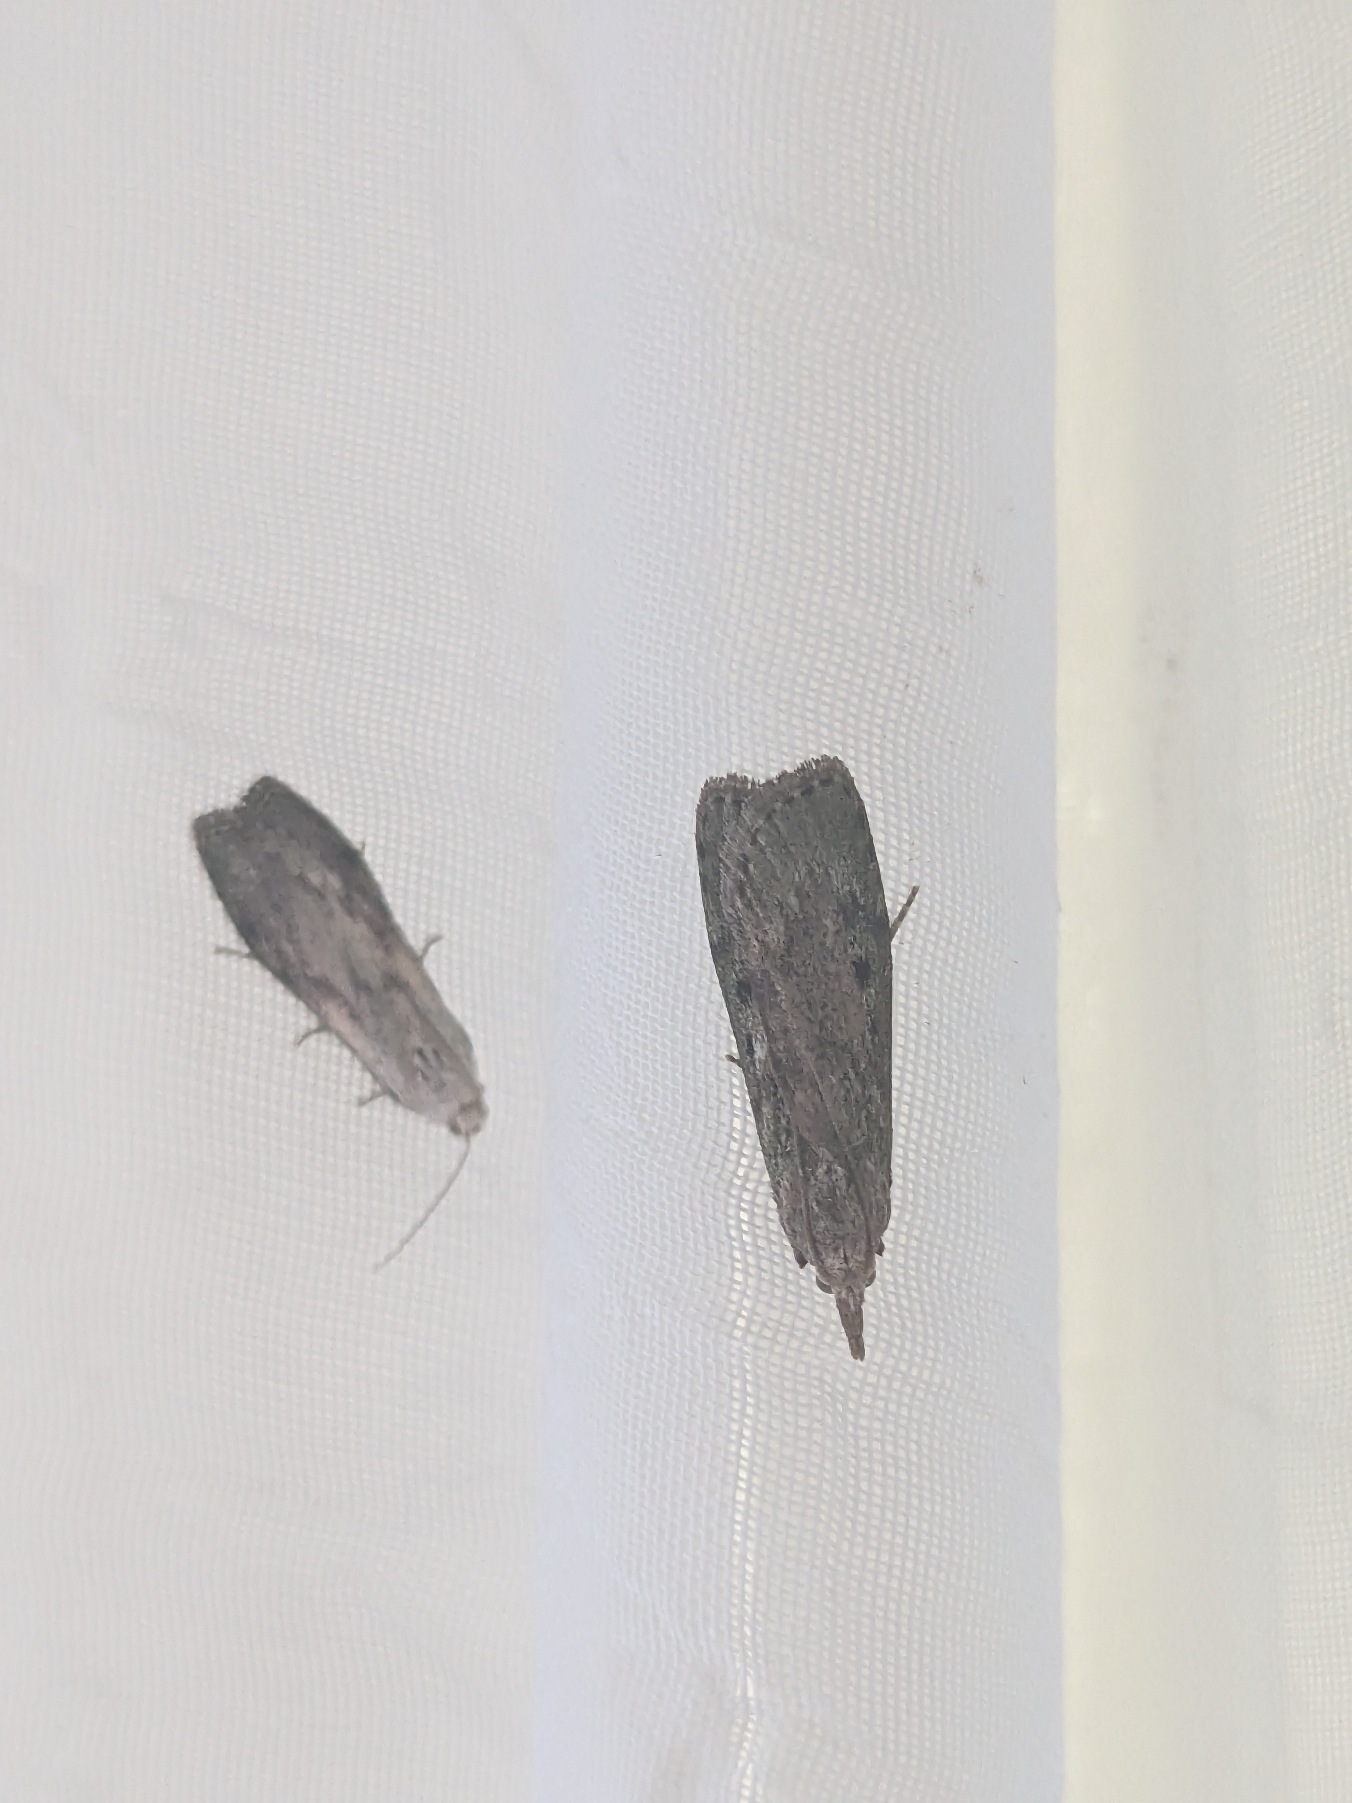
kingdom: Animalia
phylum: Arthropoda
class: Insecta
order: Lepidoptera
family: Pyralidae
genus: Aphomia
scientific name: Aphomia sociella
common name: Humlevoksmøl
